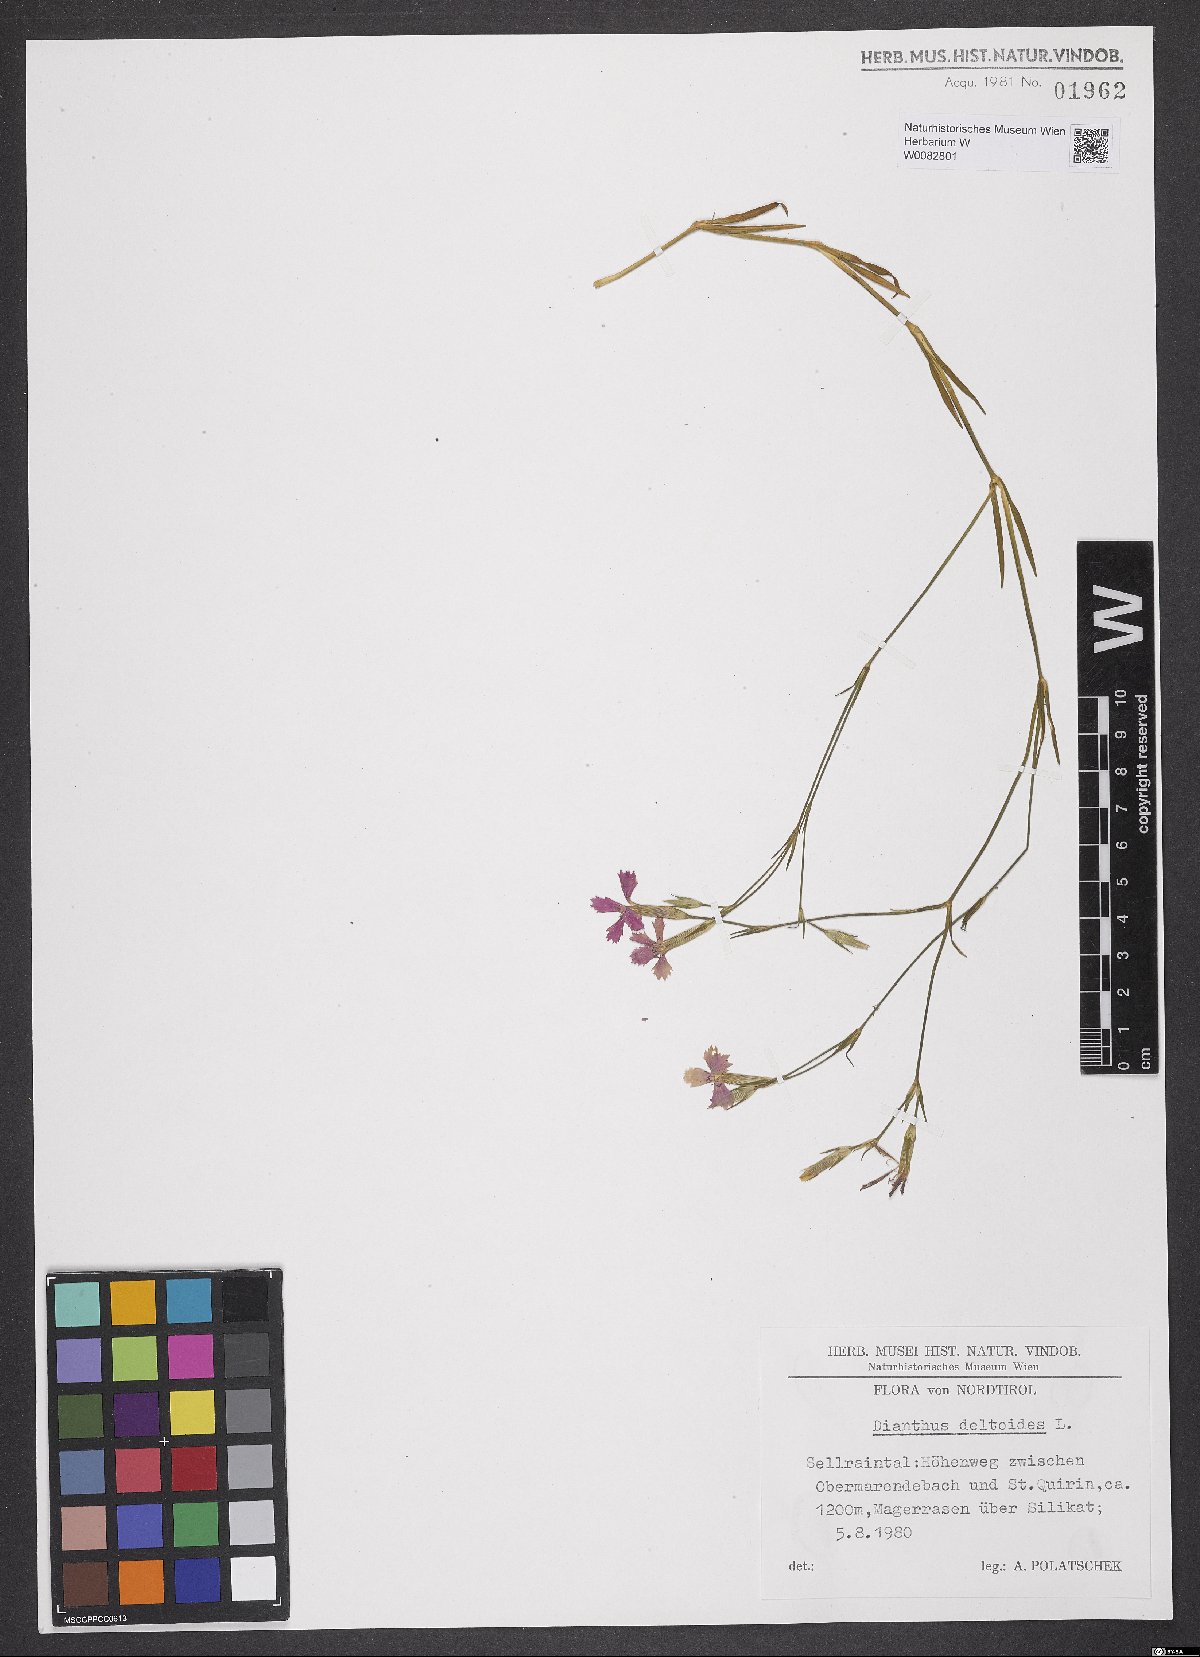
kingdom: Plantae
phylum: Tracheophyta
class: Magnoliopsida
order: Caryophyllales
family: Caryophyllaceae
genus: Dianthus
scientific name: Dianthus deltoides
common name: Maiden pink
